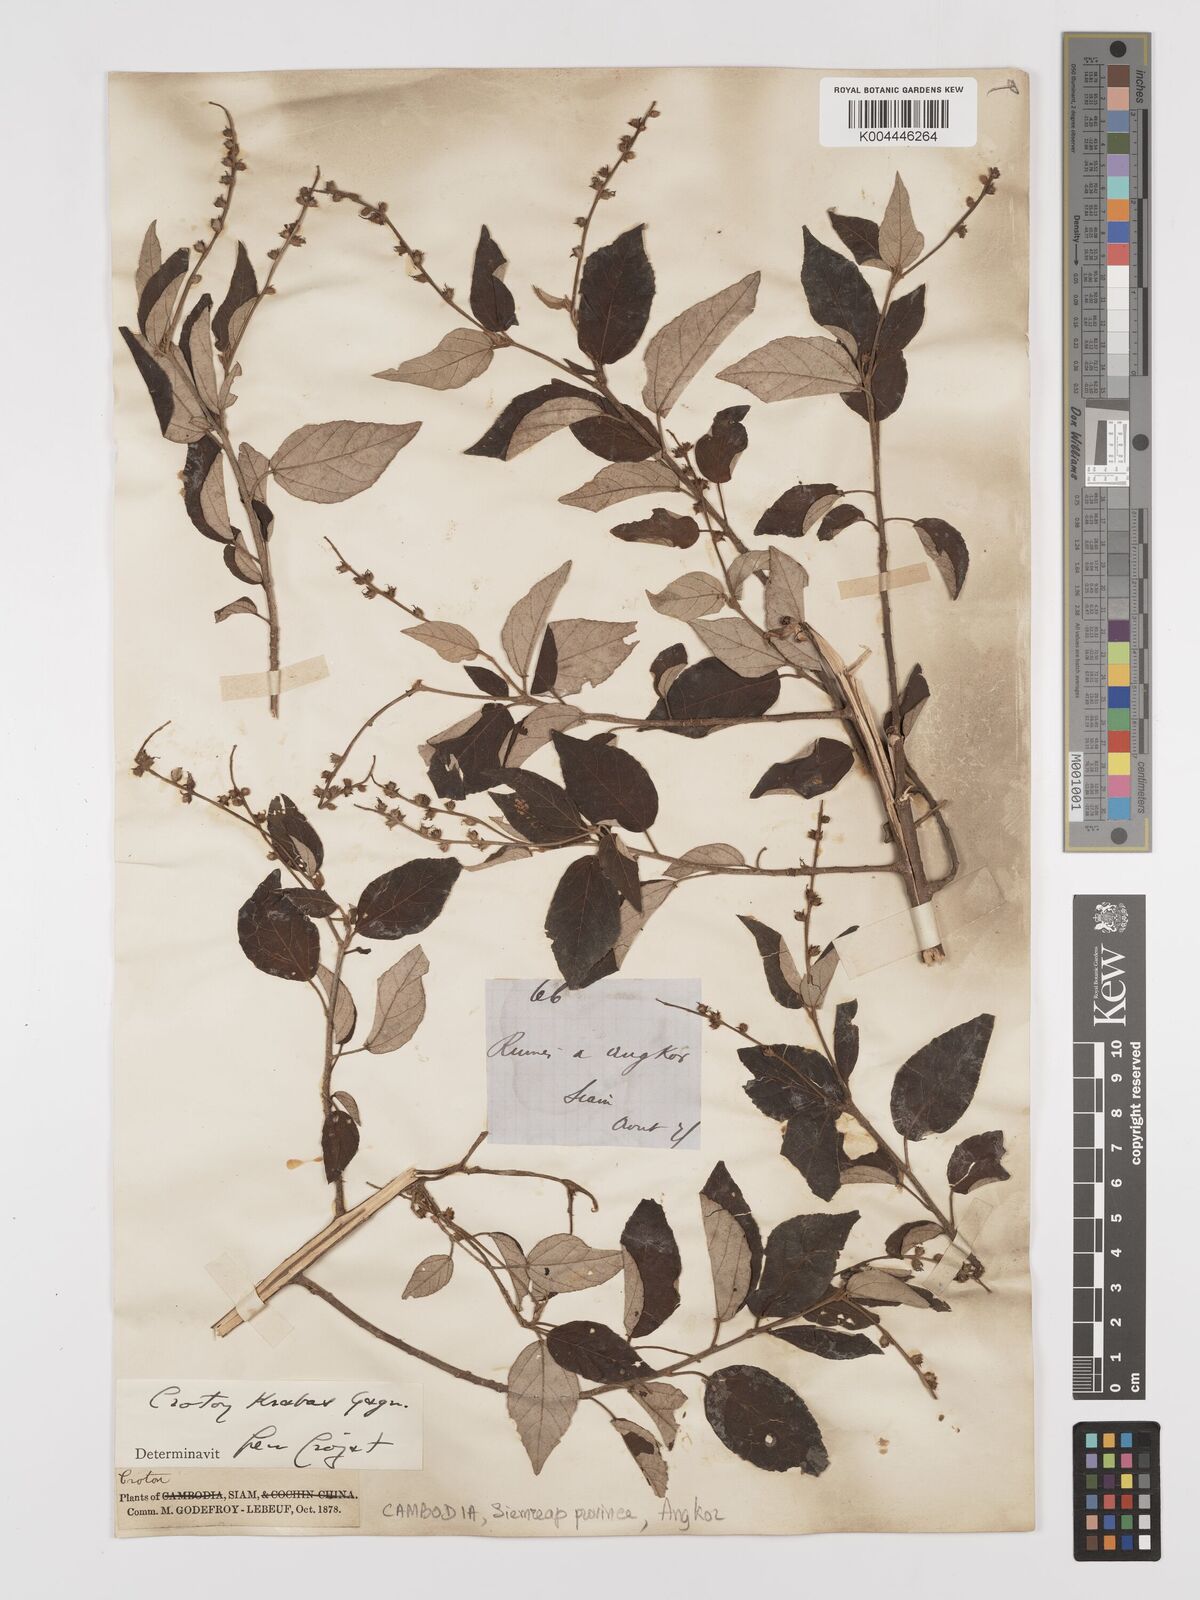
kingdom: Plantae
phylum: Tracheophyta
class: Magnoliopsida
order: Malpighiales
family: Euphorbiaceae
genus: Croton
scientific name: Croton krabas
